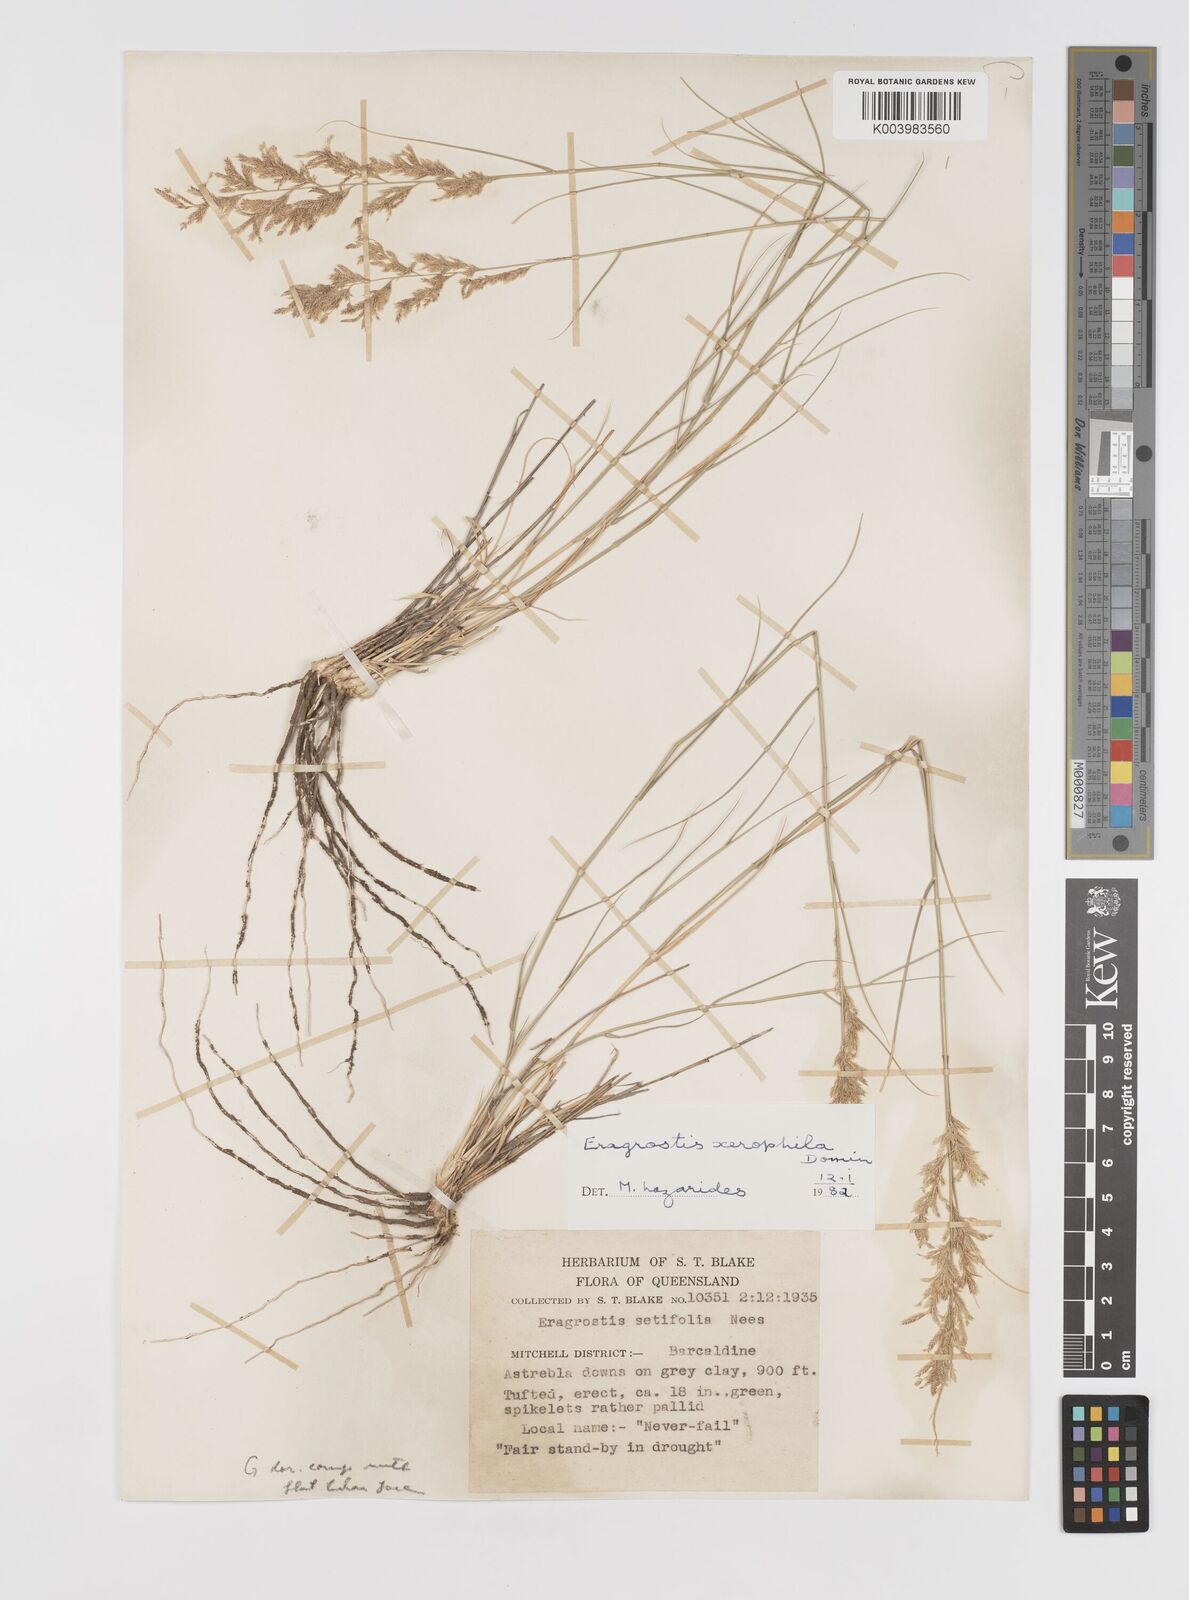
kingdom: Plantae
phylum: Tracheophyta
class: Liliopsida
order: Poales
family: Poaceae
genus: Eragrostis
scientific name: Eragrostis xerophila
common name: Wire wandarrie grass
